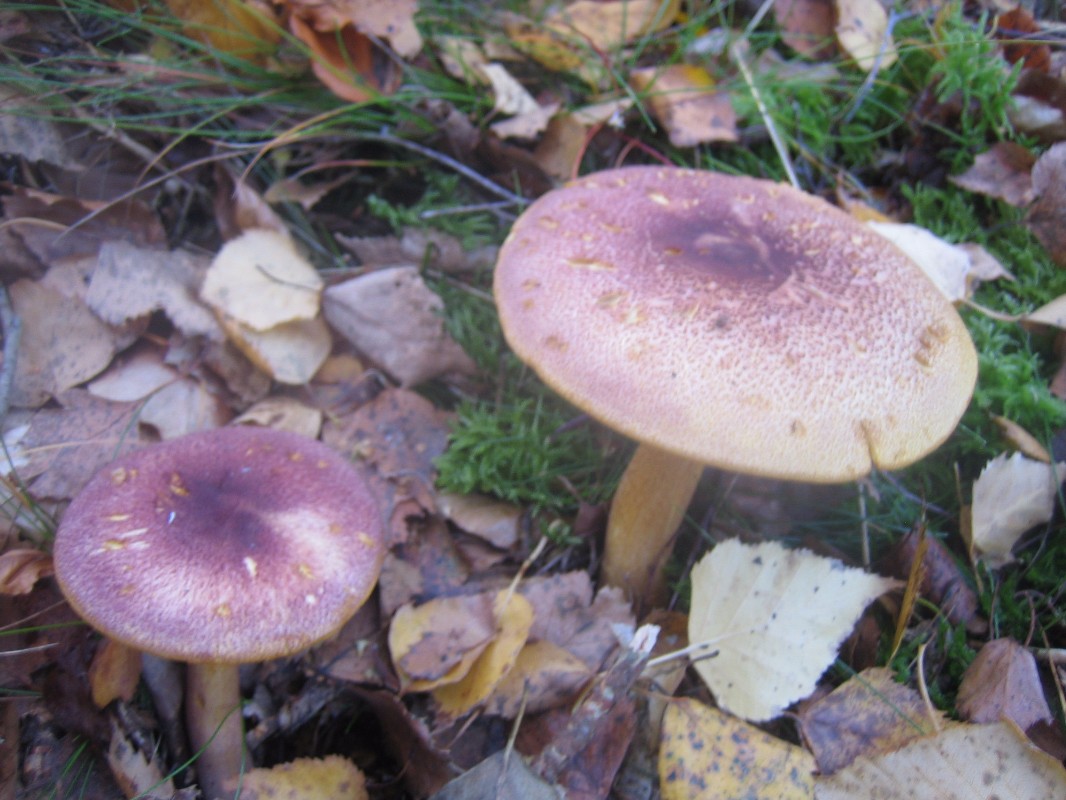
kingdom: Fungi
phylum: Basidiomycota
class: Agaricomycetes
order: Agaricales
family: Tricholomataceae
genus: Tricholomopsis
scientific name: Tricholomopsis rutilans
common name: purpur-væbnerhat
